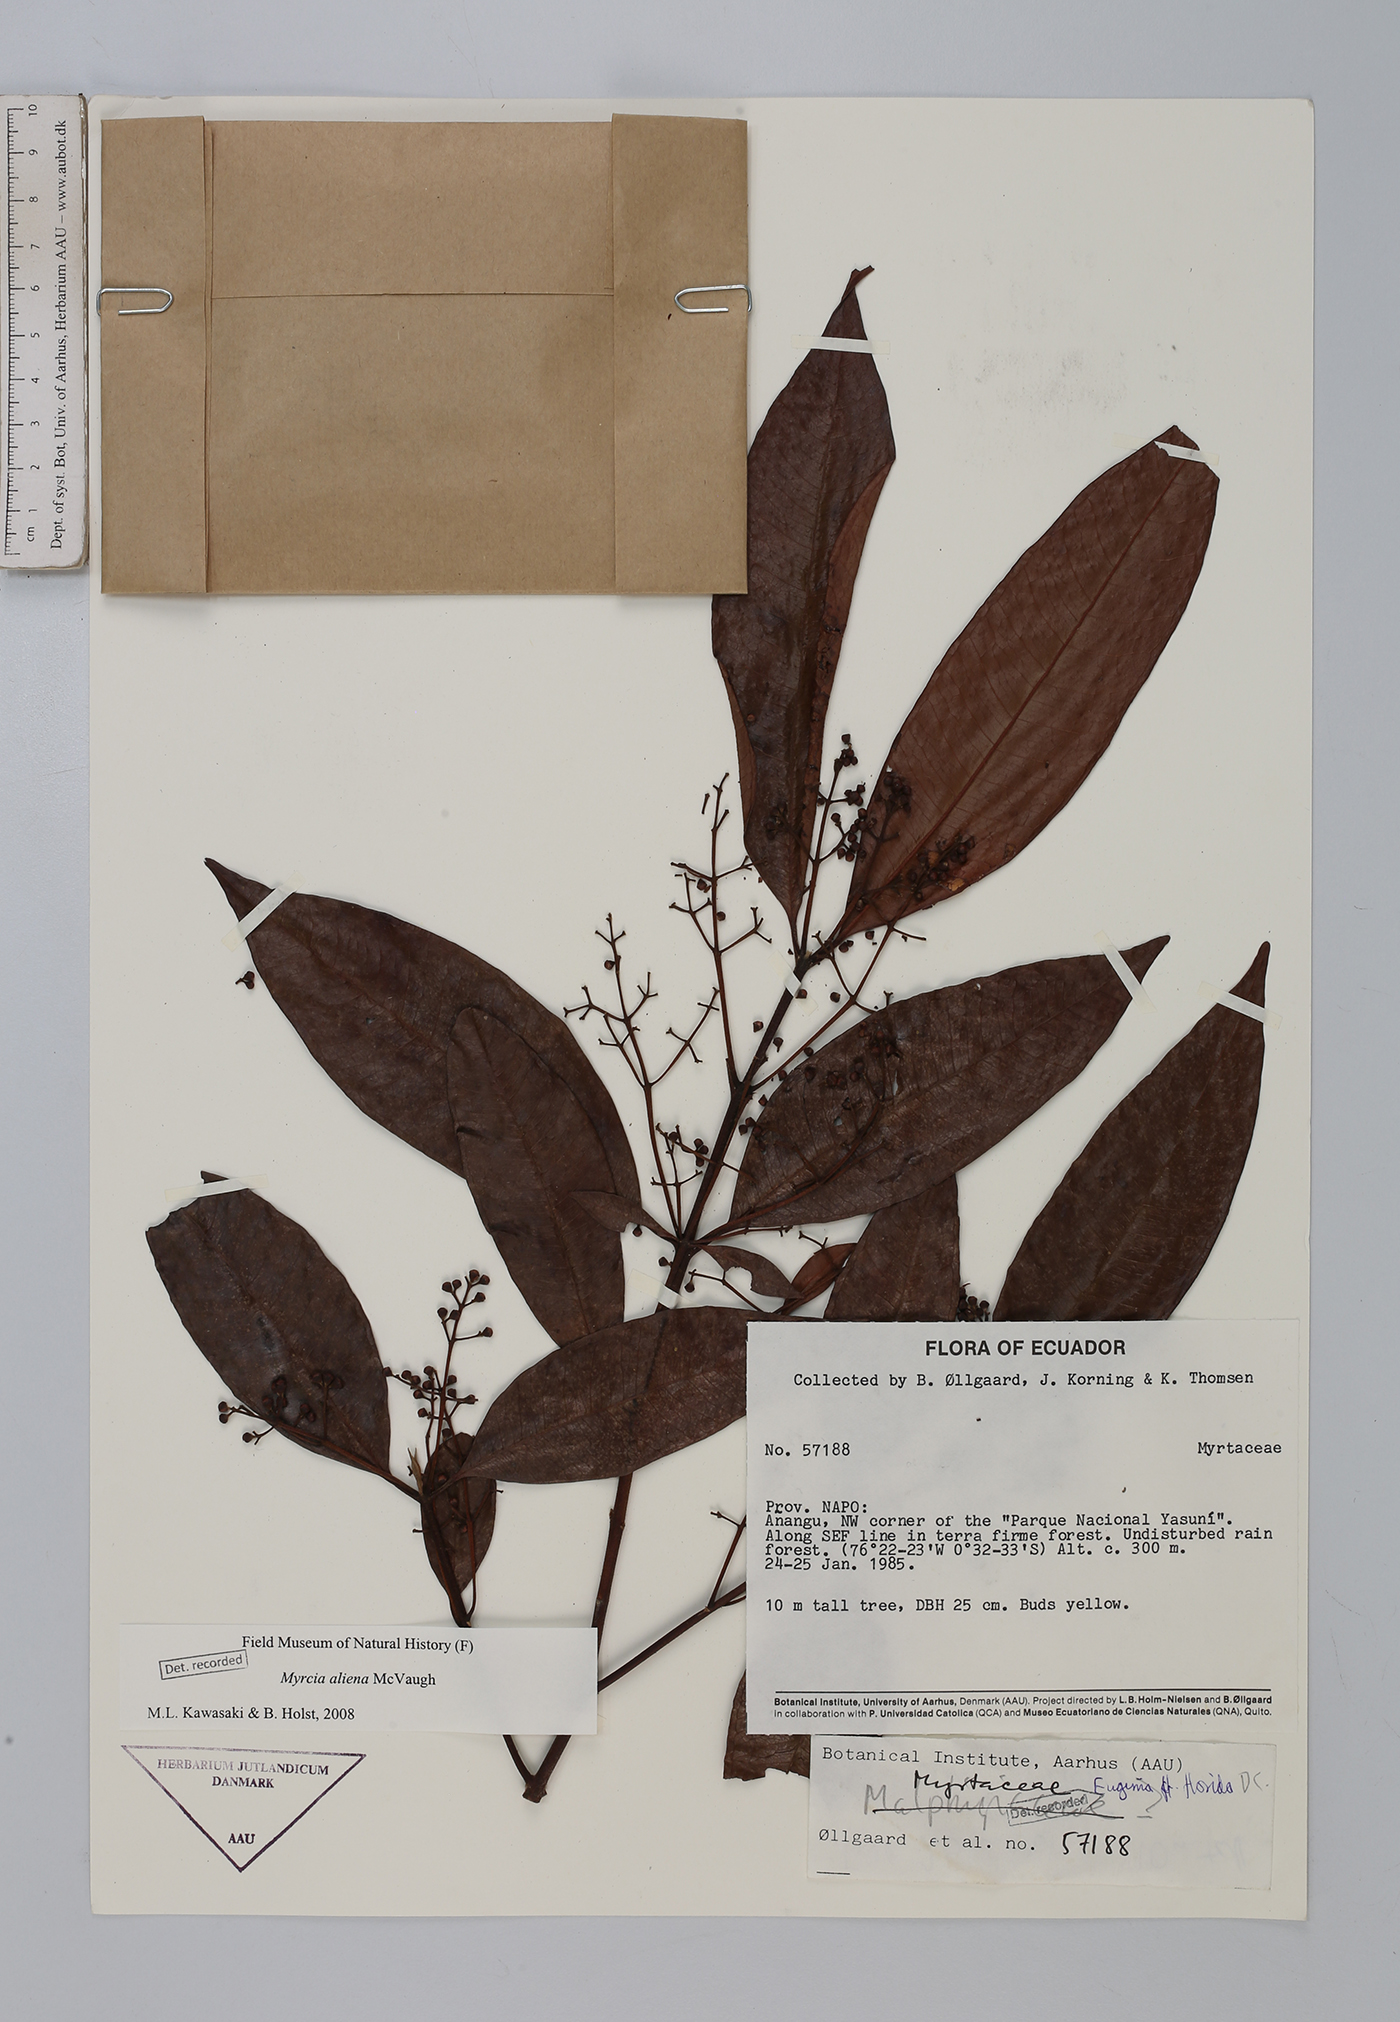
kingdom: Plantae
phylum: Tracheophyta
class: Magnoliopsida
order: Myrtales
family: Myrtaceae
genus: Myrcia
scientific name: Myrcia aliena
